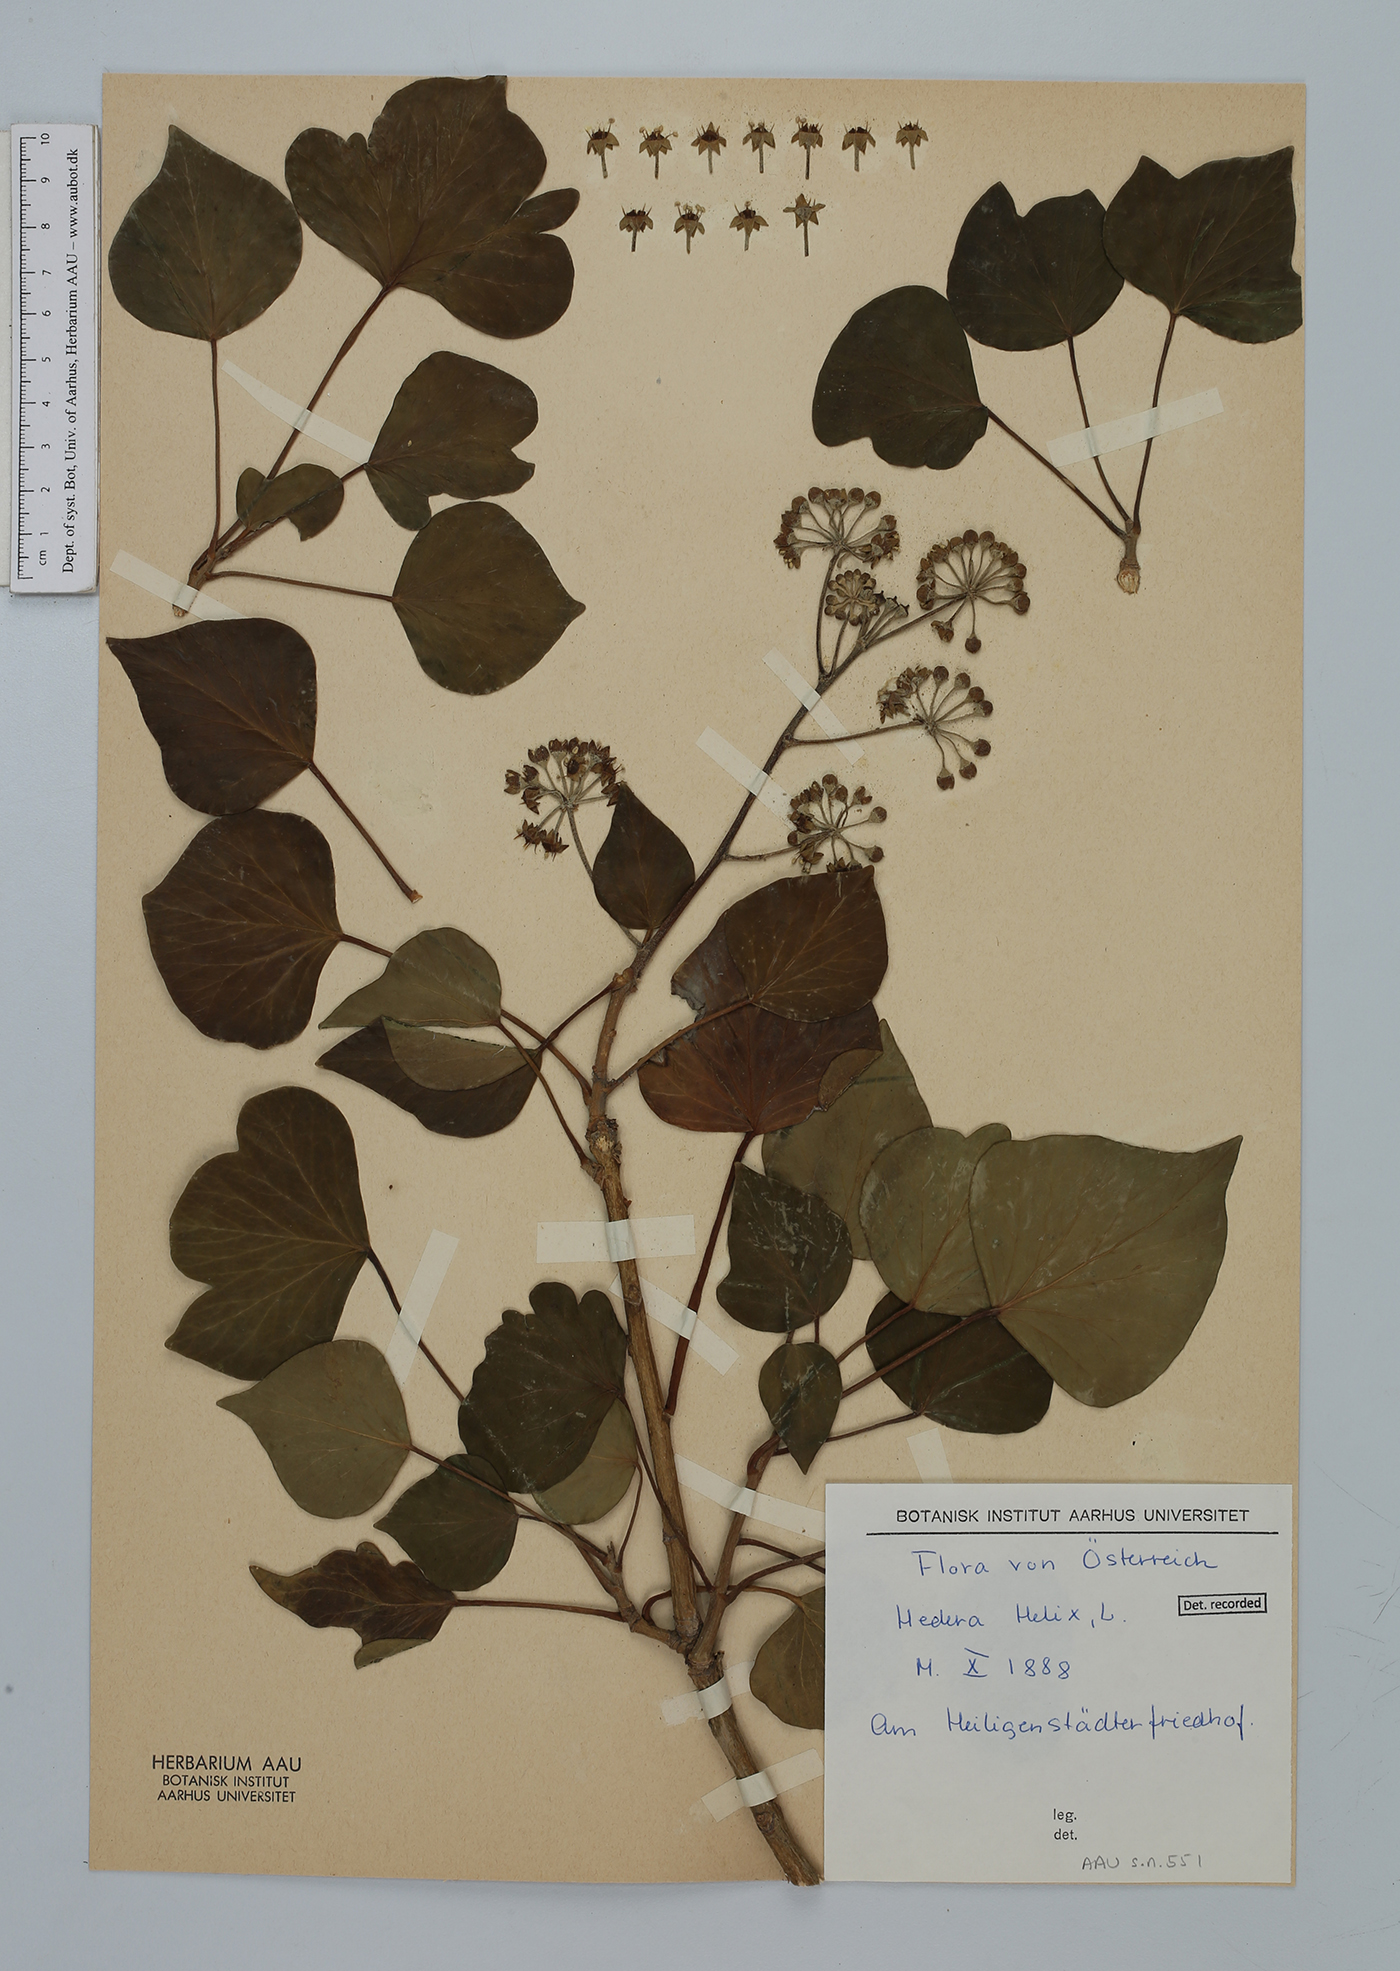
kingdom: Plantae
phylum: Tracheophyta
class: Magnoliopsida
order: Apiales
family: Araliaceae
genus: Hedera
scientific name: Hedera helix
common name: Ivy
